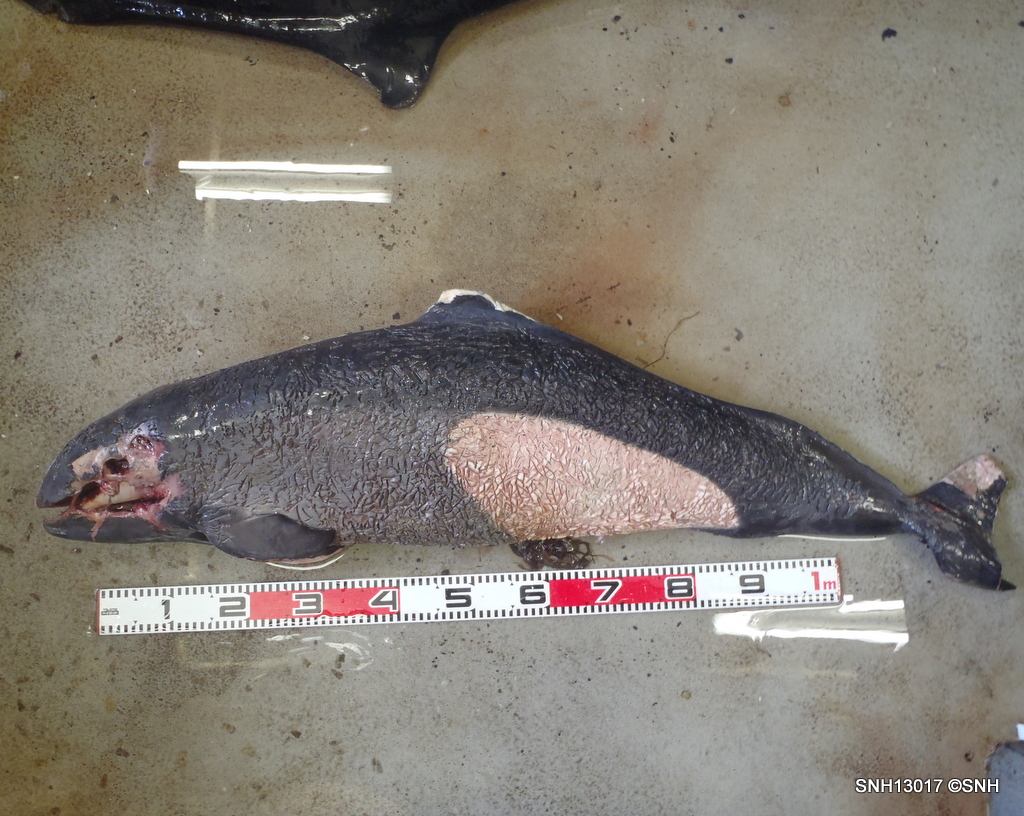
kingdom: Animalia
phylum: Chordata
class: Mammalia
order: Cetacea
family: Phocoenidae
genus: Phocoenoides
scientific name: Phocoenoides dalli
